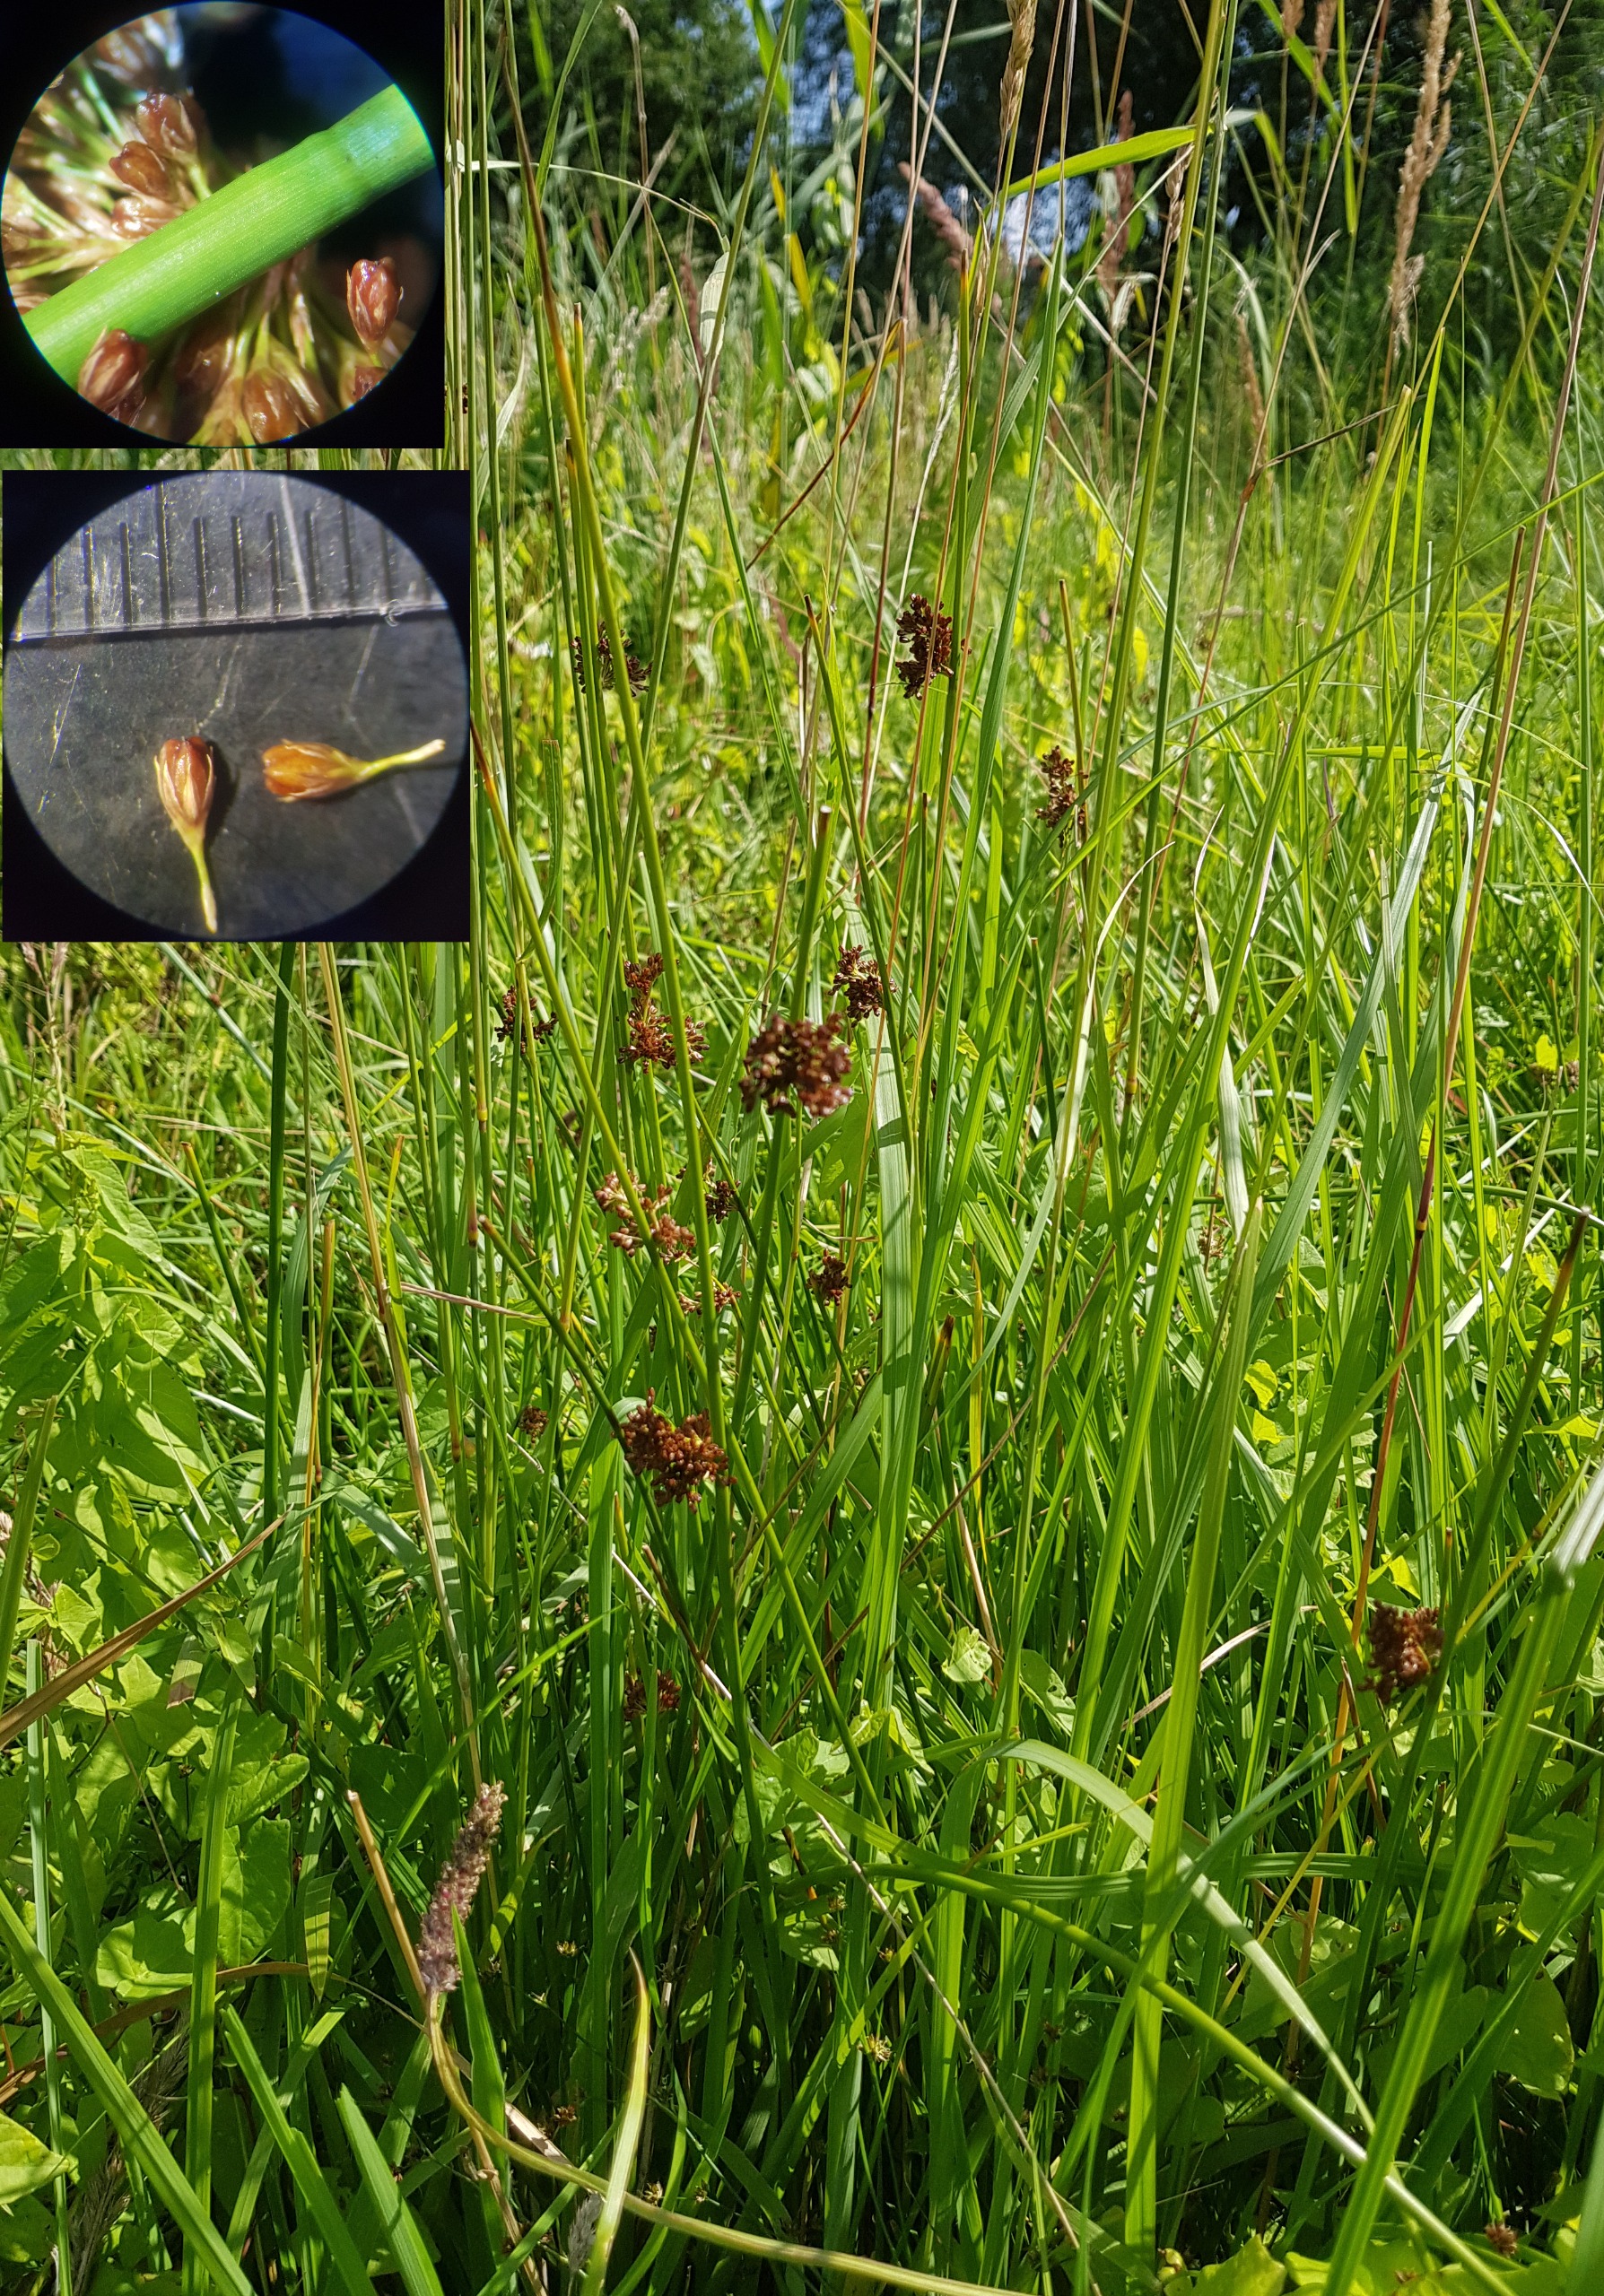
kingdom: Plantae
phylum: Tracheophyta
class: Liliopsida
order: Poales
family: Juncaceae
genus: Juncus
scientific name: Juncus effusus
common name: Lyse-siv
